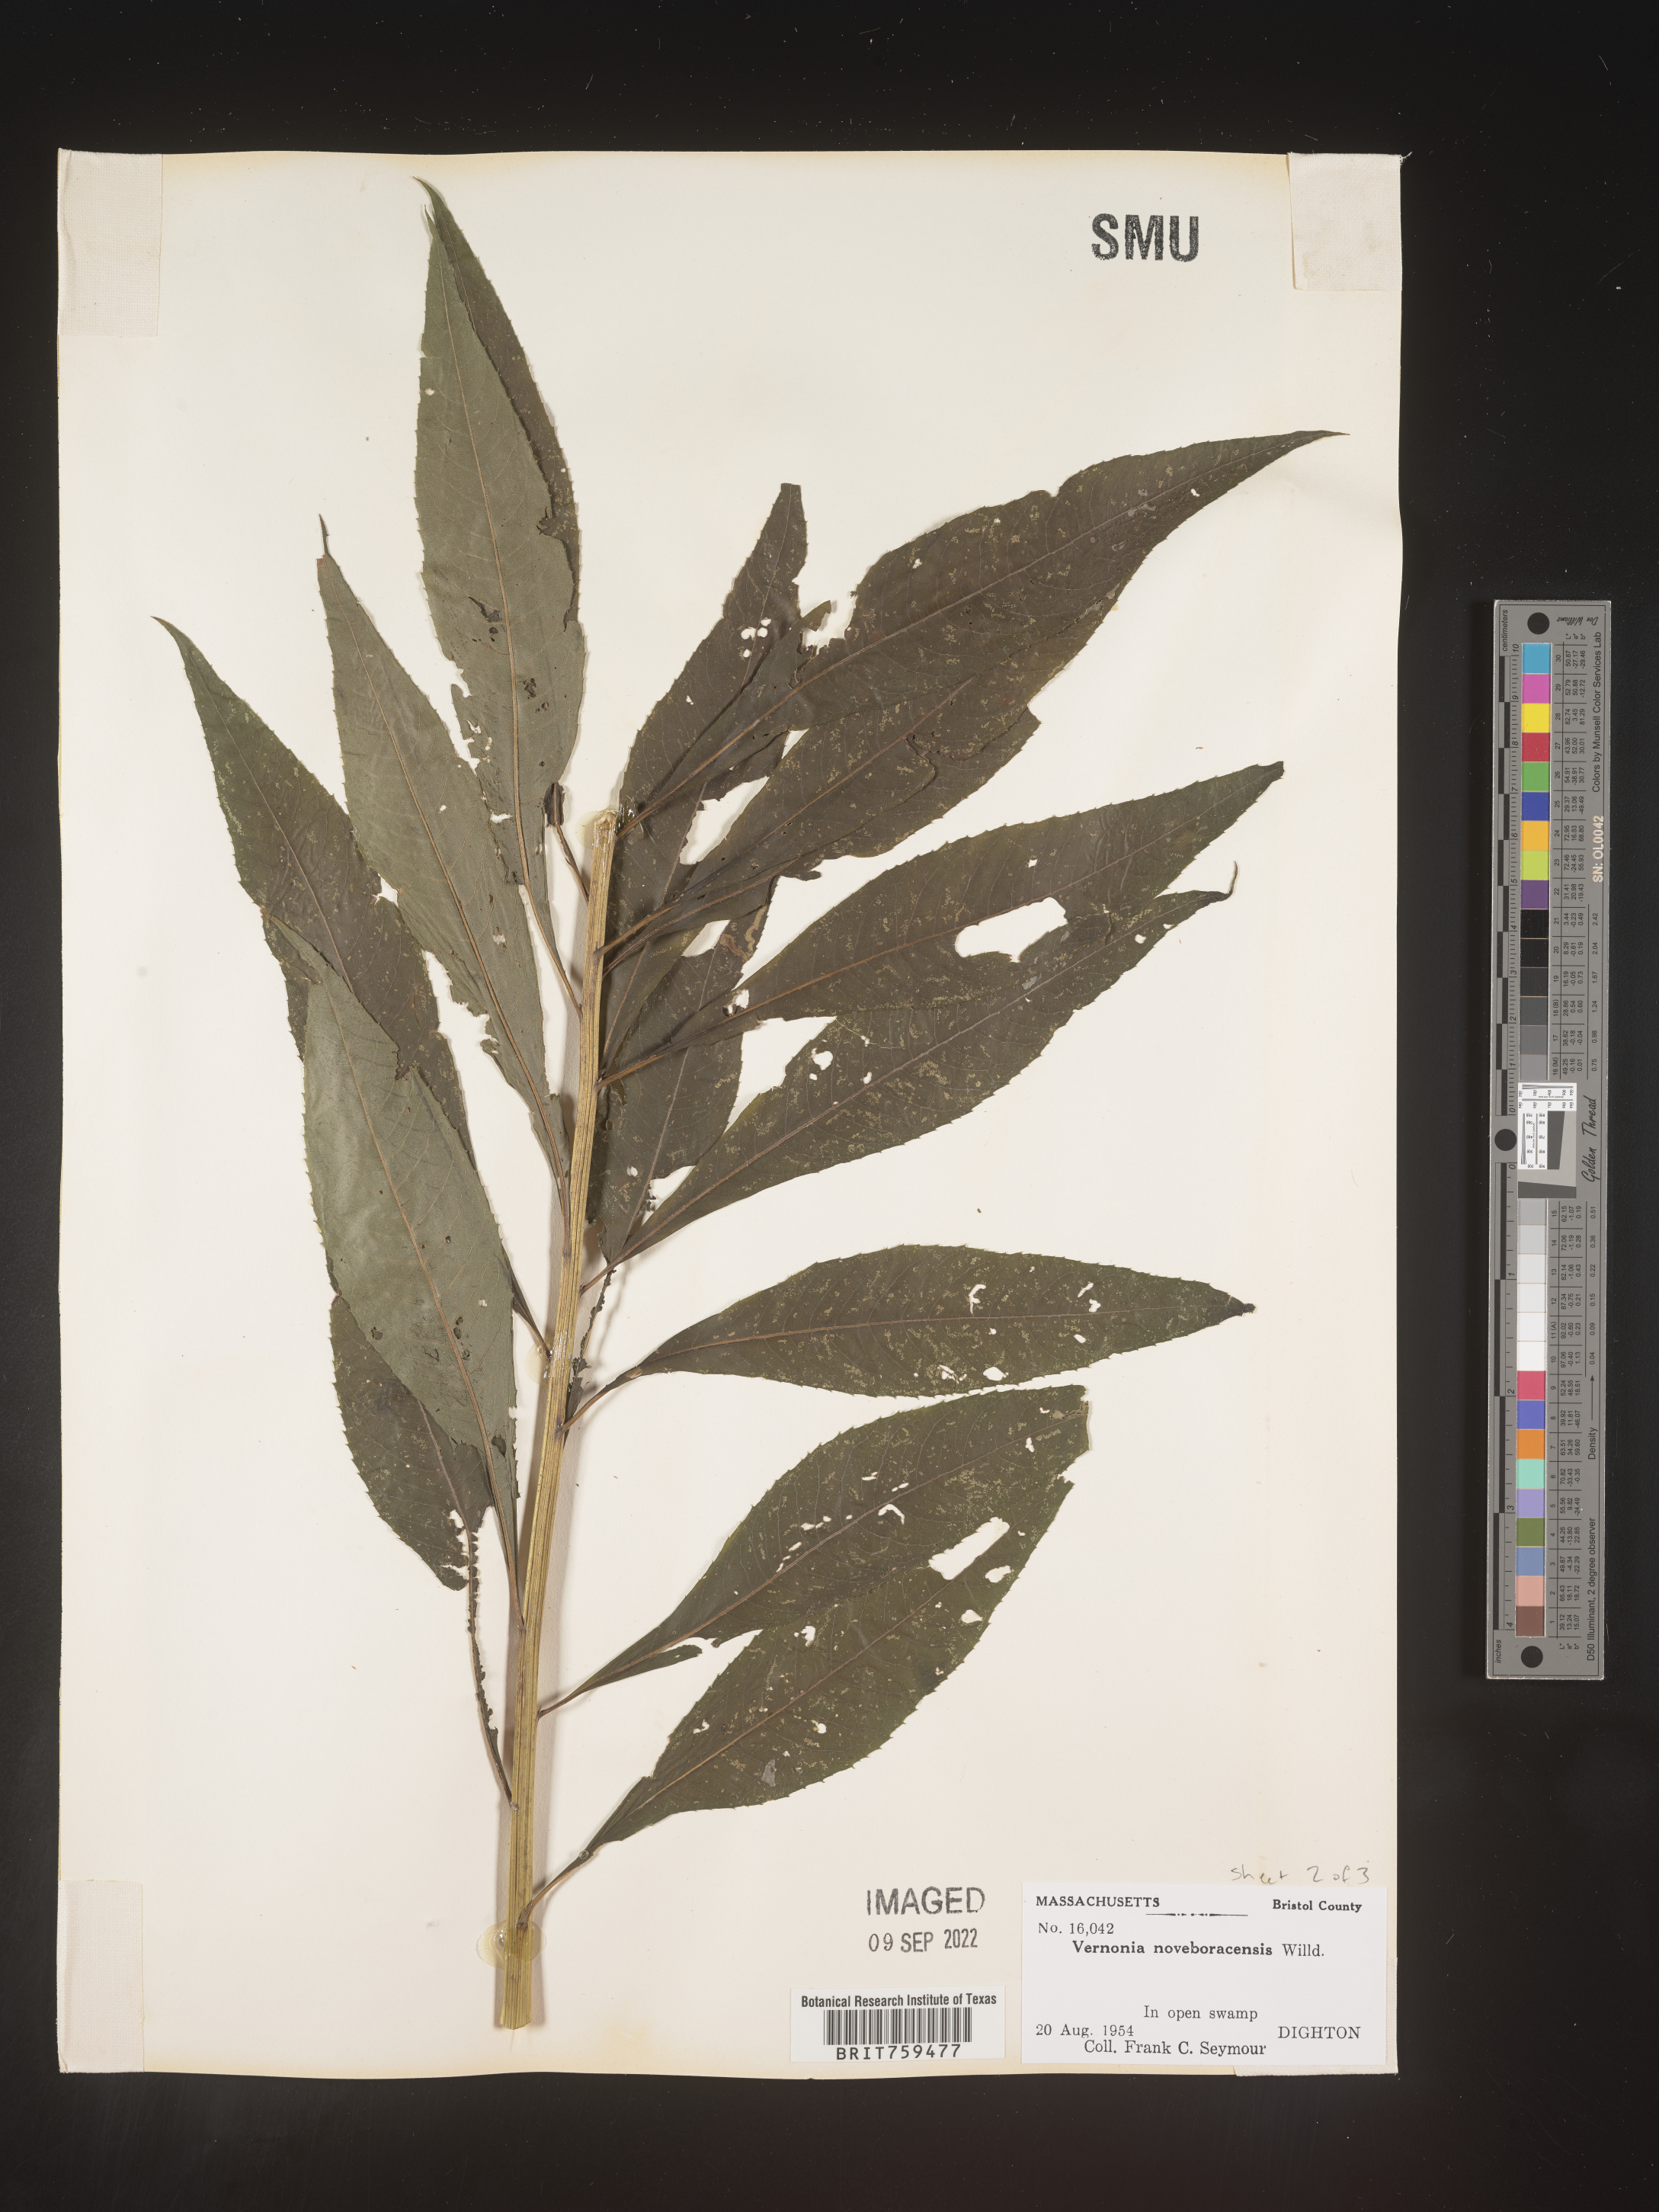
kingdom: Plantae
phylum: Tracheophyta
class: Magnoliopsida
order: Asterales
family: Asteraceae
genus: Vernonia
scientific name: Vernonia noveboracensis
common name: New york ironweed
